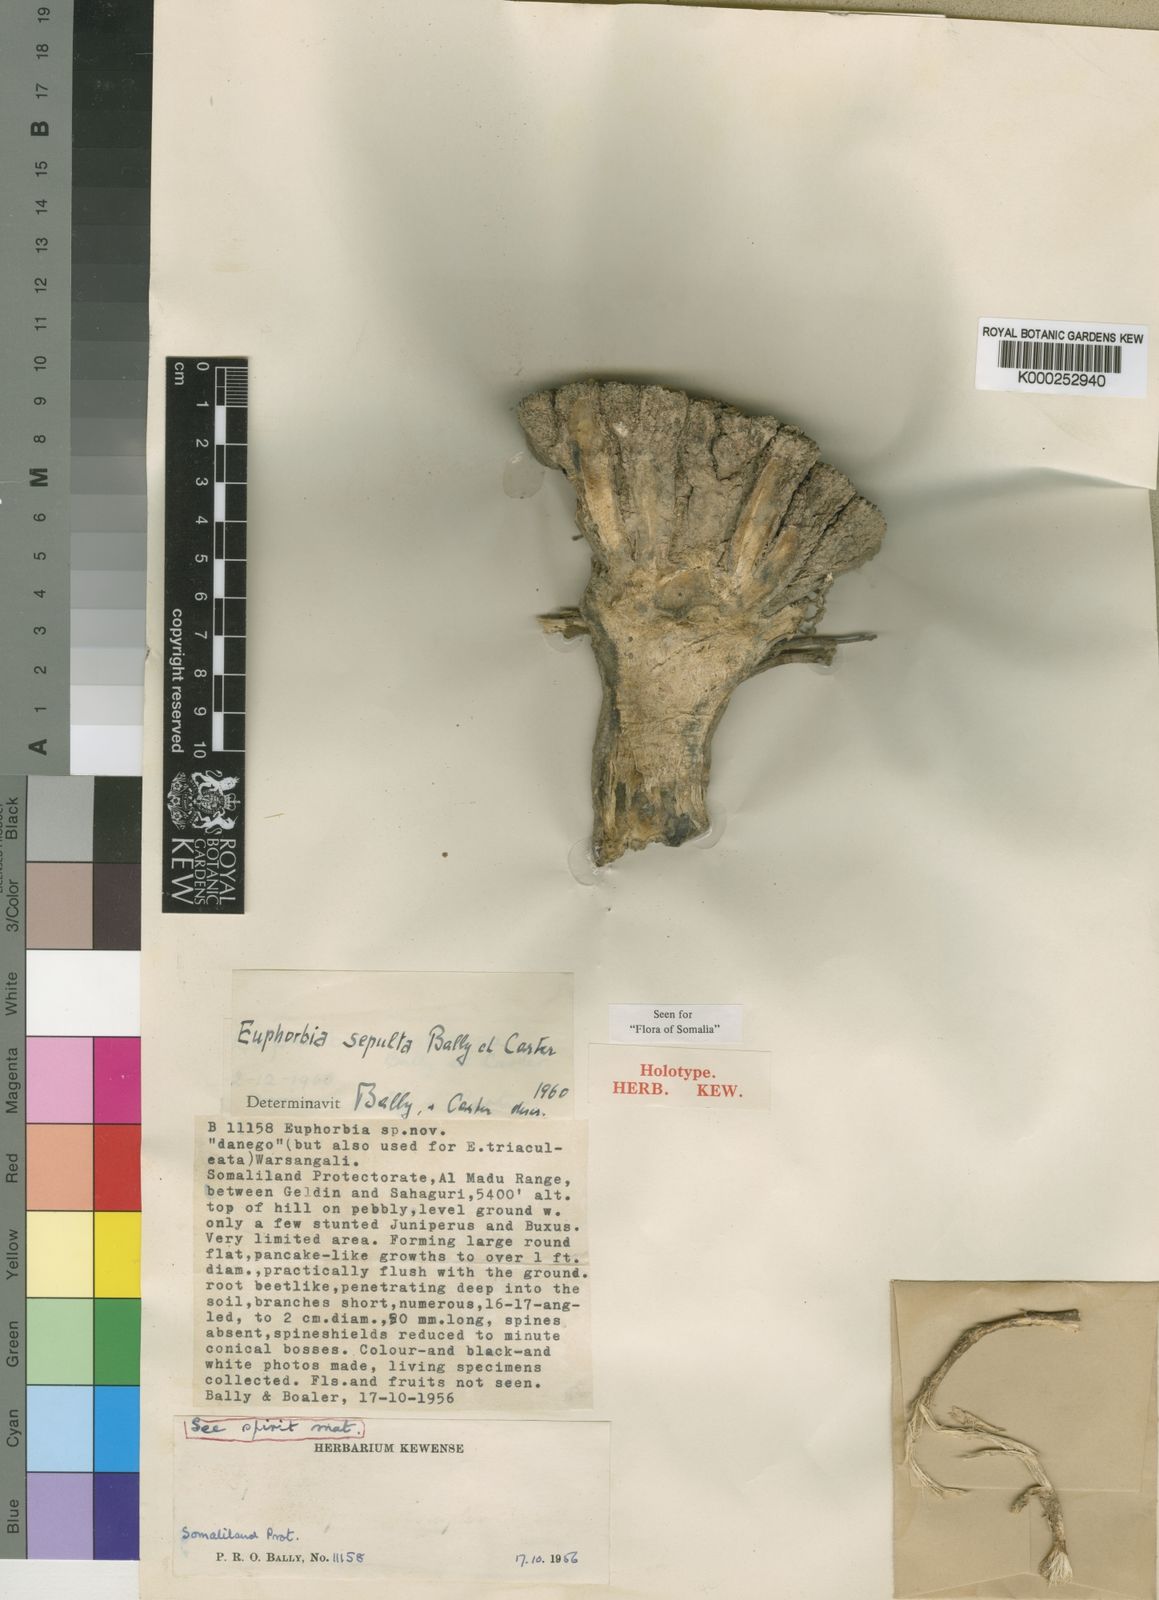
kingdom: Plantae
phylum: Tracheophyta
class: Magnoliopsida
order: Malpighiales
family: Euphorbiaceae
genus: Euphorbia
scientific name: Euphorbia sepulta
